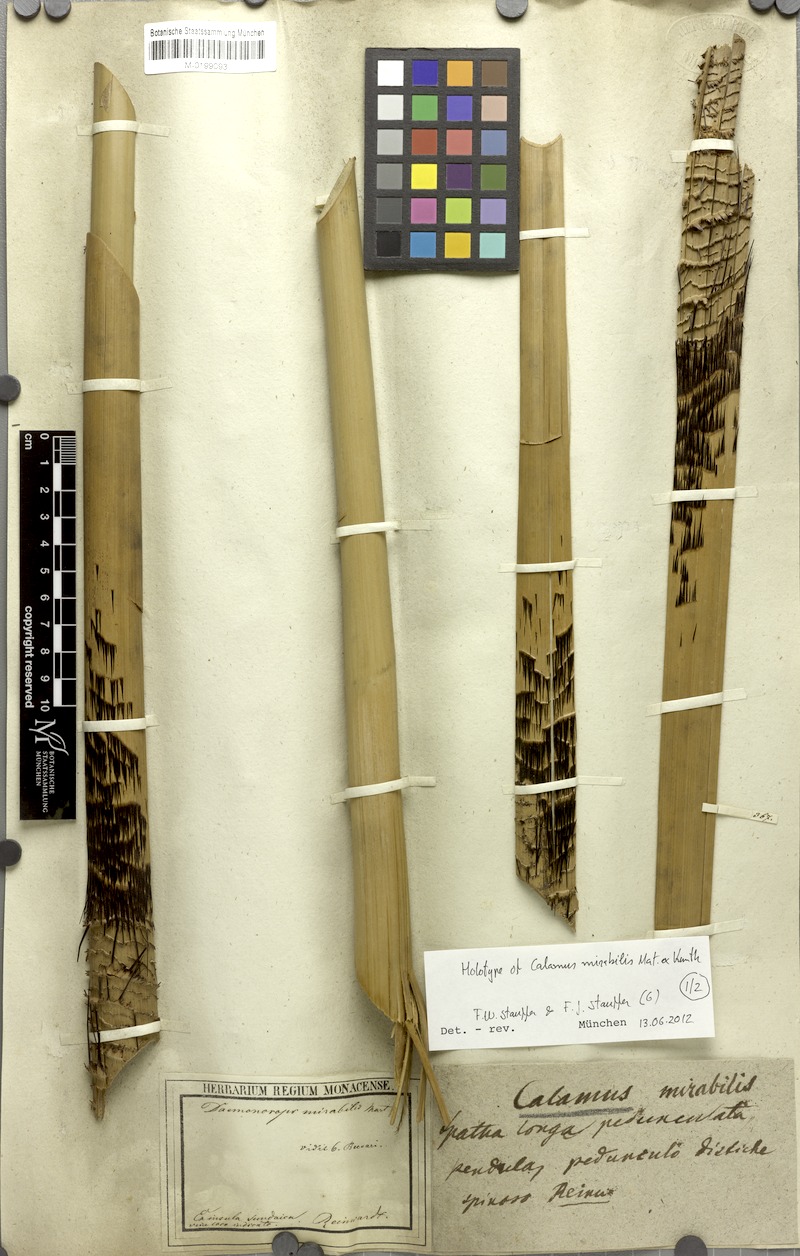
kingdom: Plantae
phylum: Tracheophyta
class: Liliopsida
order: Arecales
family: Arecaceae
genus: Calamus
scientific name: Calamus mirabilis
